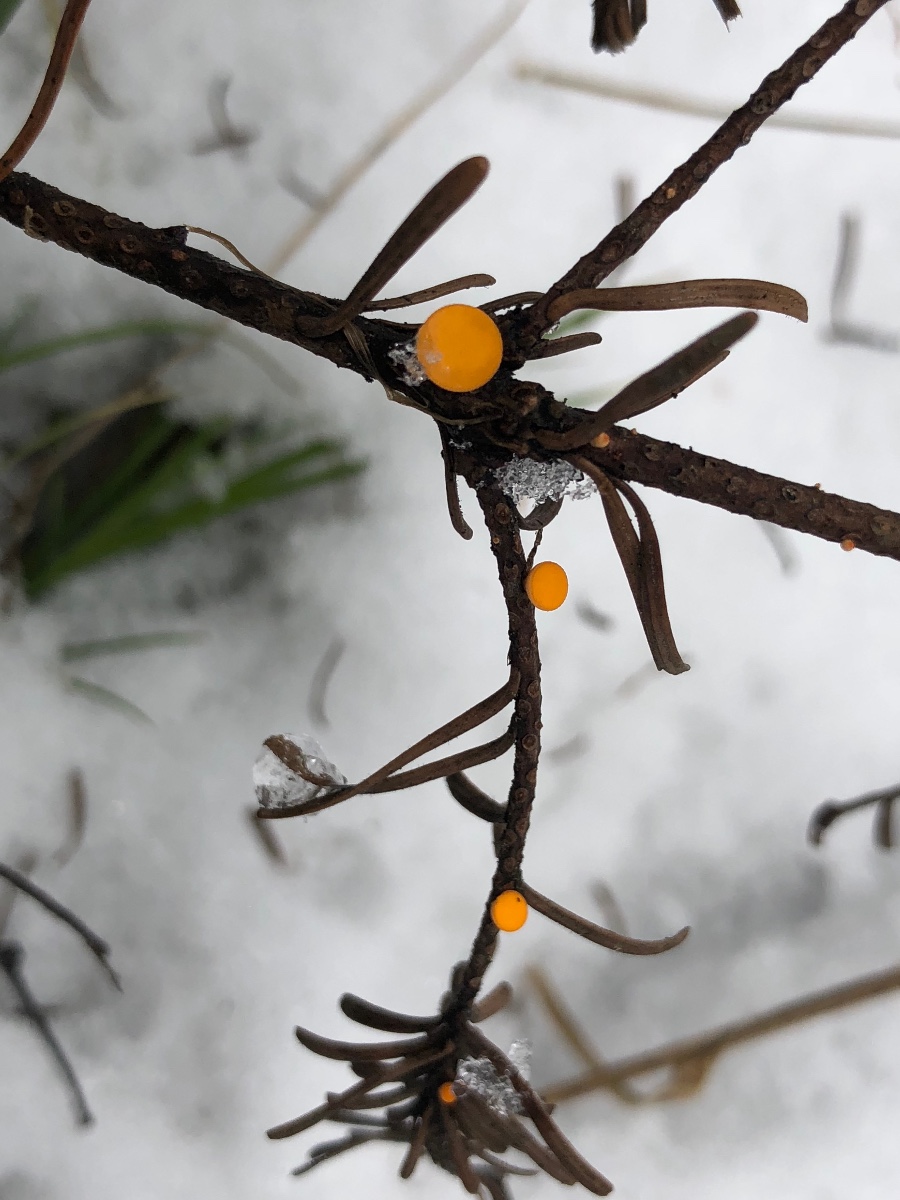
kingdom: Fungi
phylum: Ascomycota
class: Pezizomycetes
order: Pezizales
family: Sarcoscyphaceae
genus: Pithya
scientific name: Pithya vulgaris
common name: stor dukatbæger
